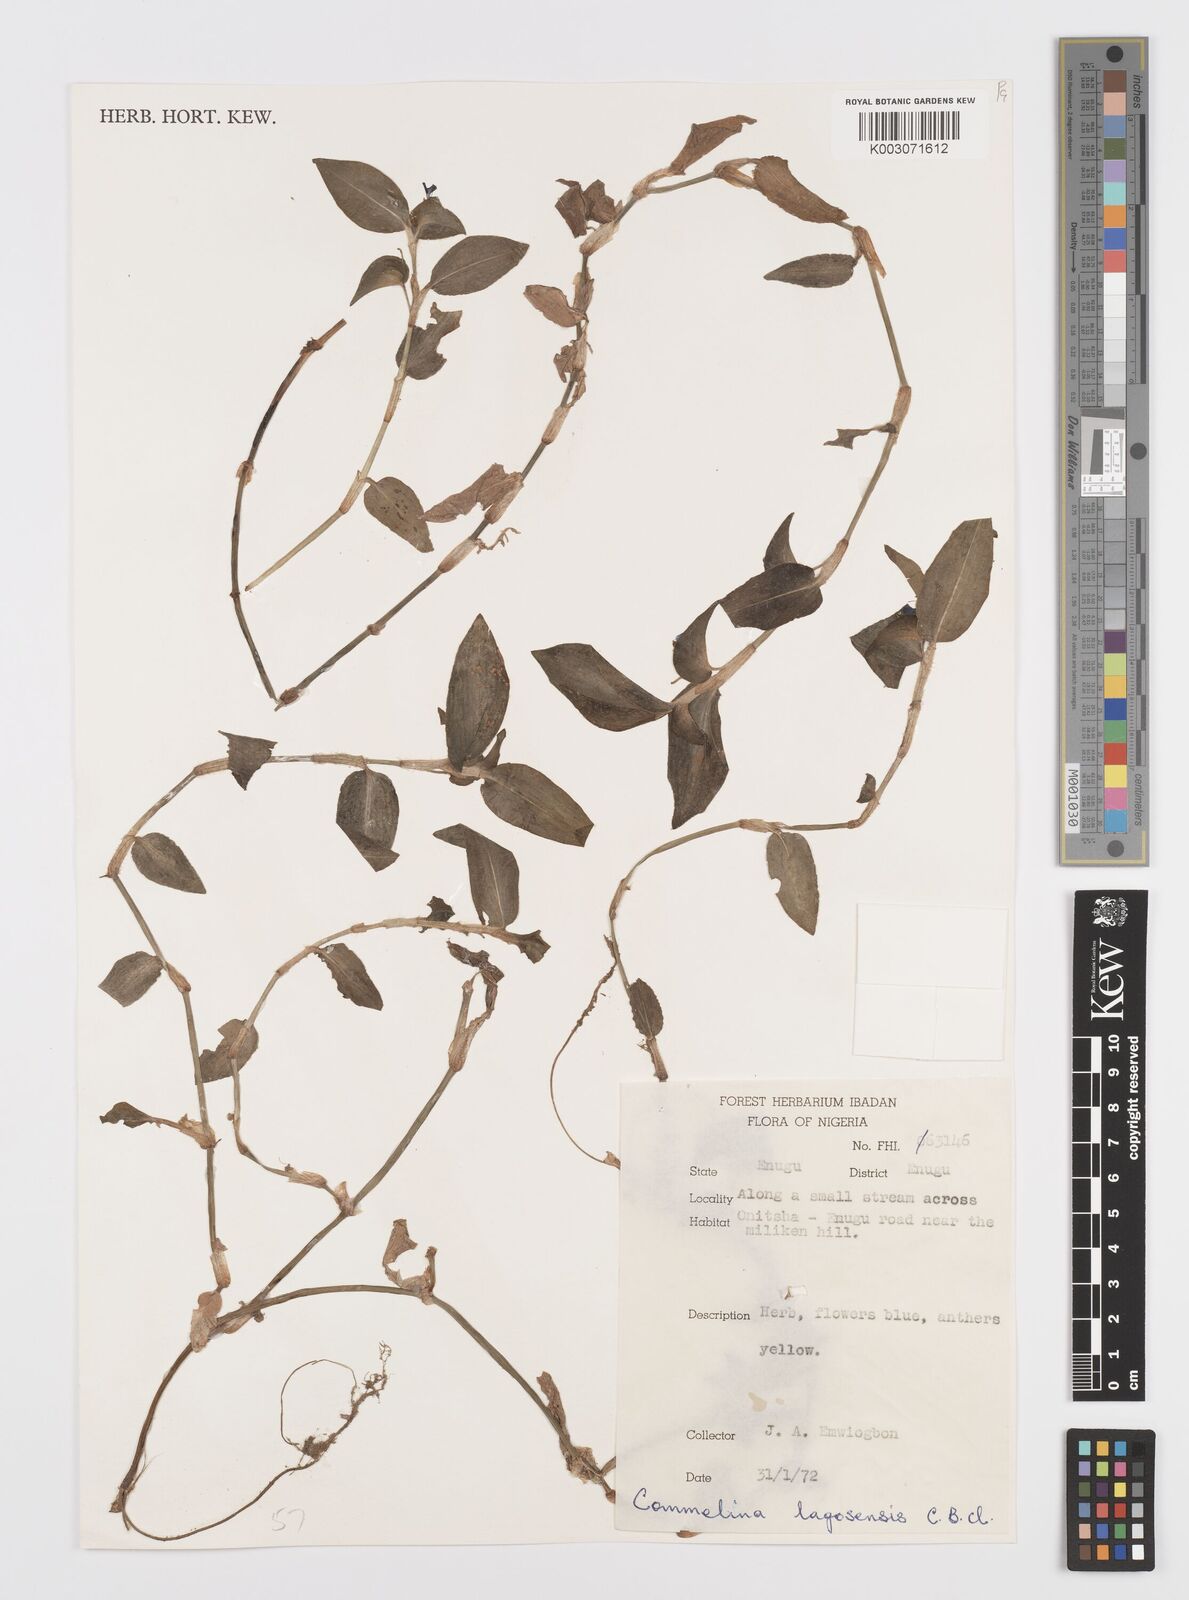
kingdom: Plantae
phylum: Tracheophyta
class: Liliopsida
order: Commelinales
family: Commelinaceae
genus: Commelina
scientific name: Commelina bracteosa
